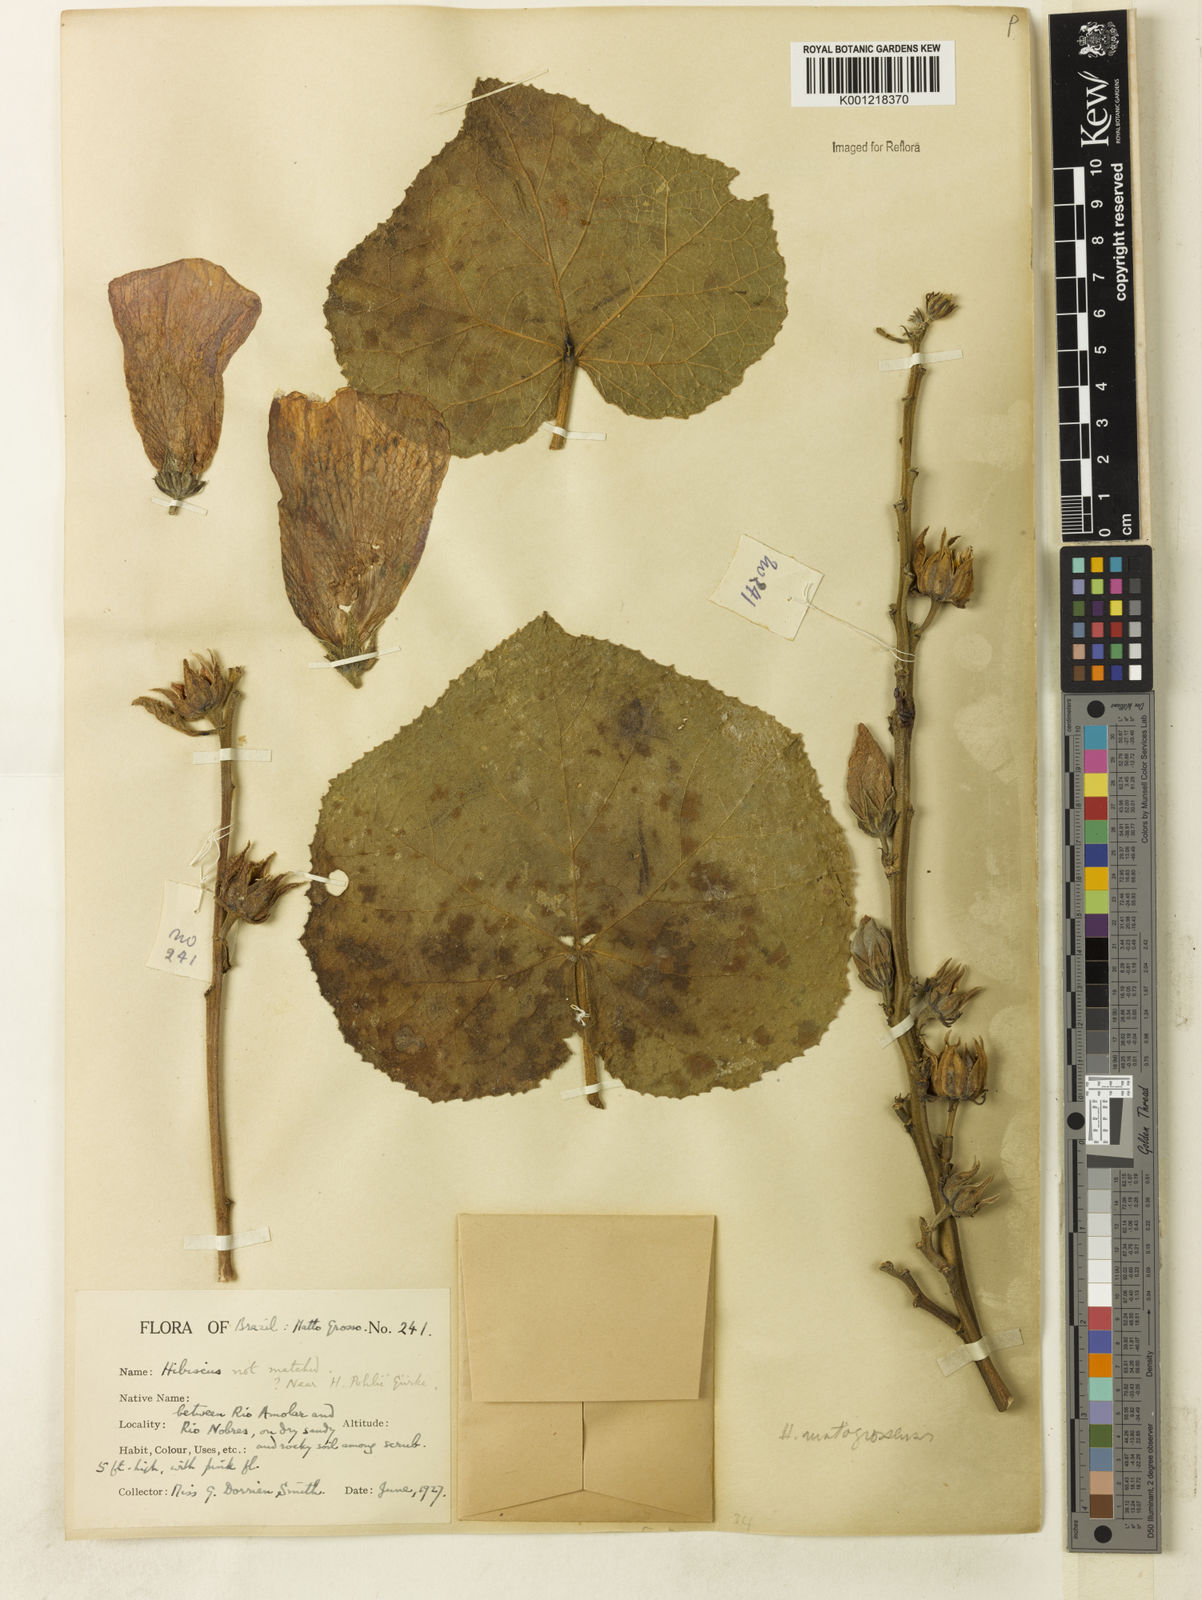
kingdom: Plantae
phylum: Tracheophyta
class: Magnoliopsida
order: Malvales
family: Malvaceae
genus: Hibiscus
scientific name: Hibiscus
